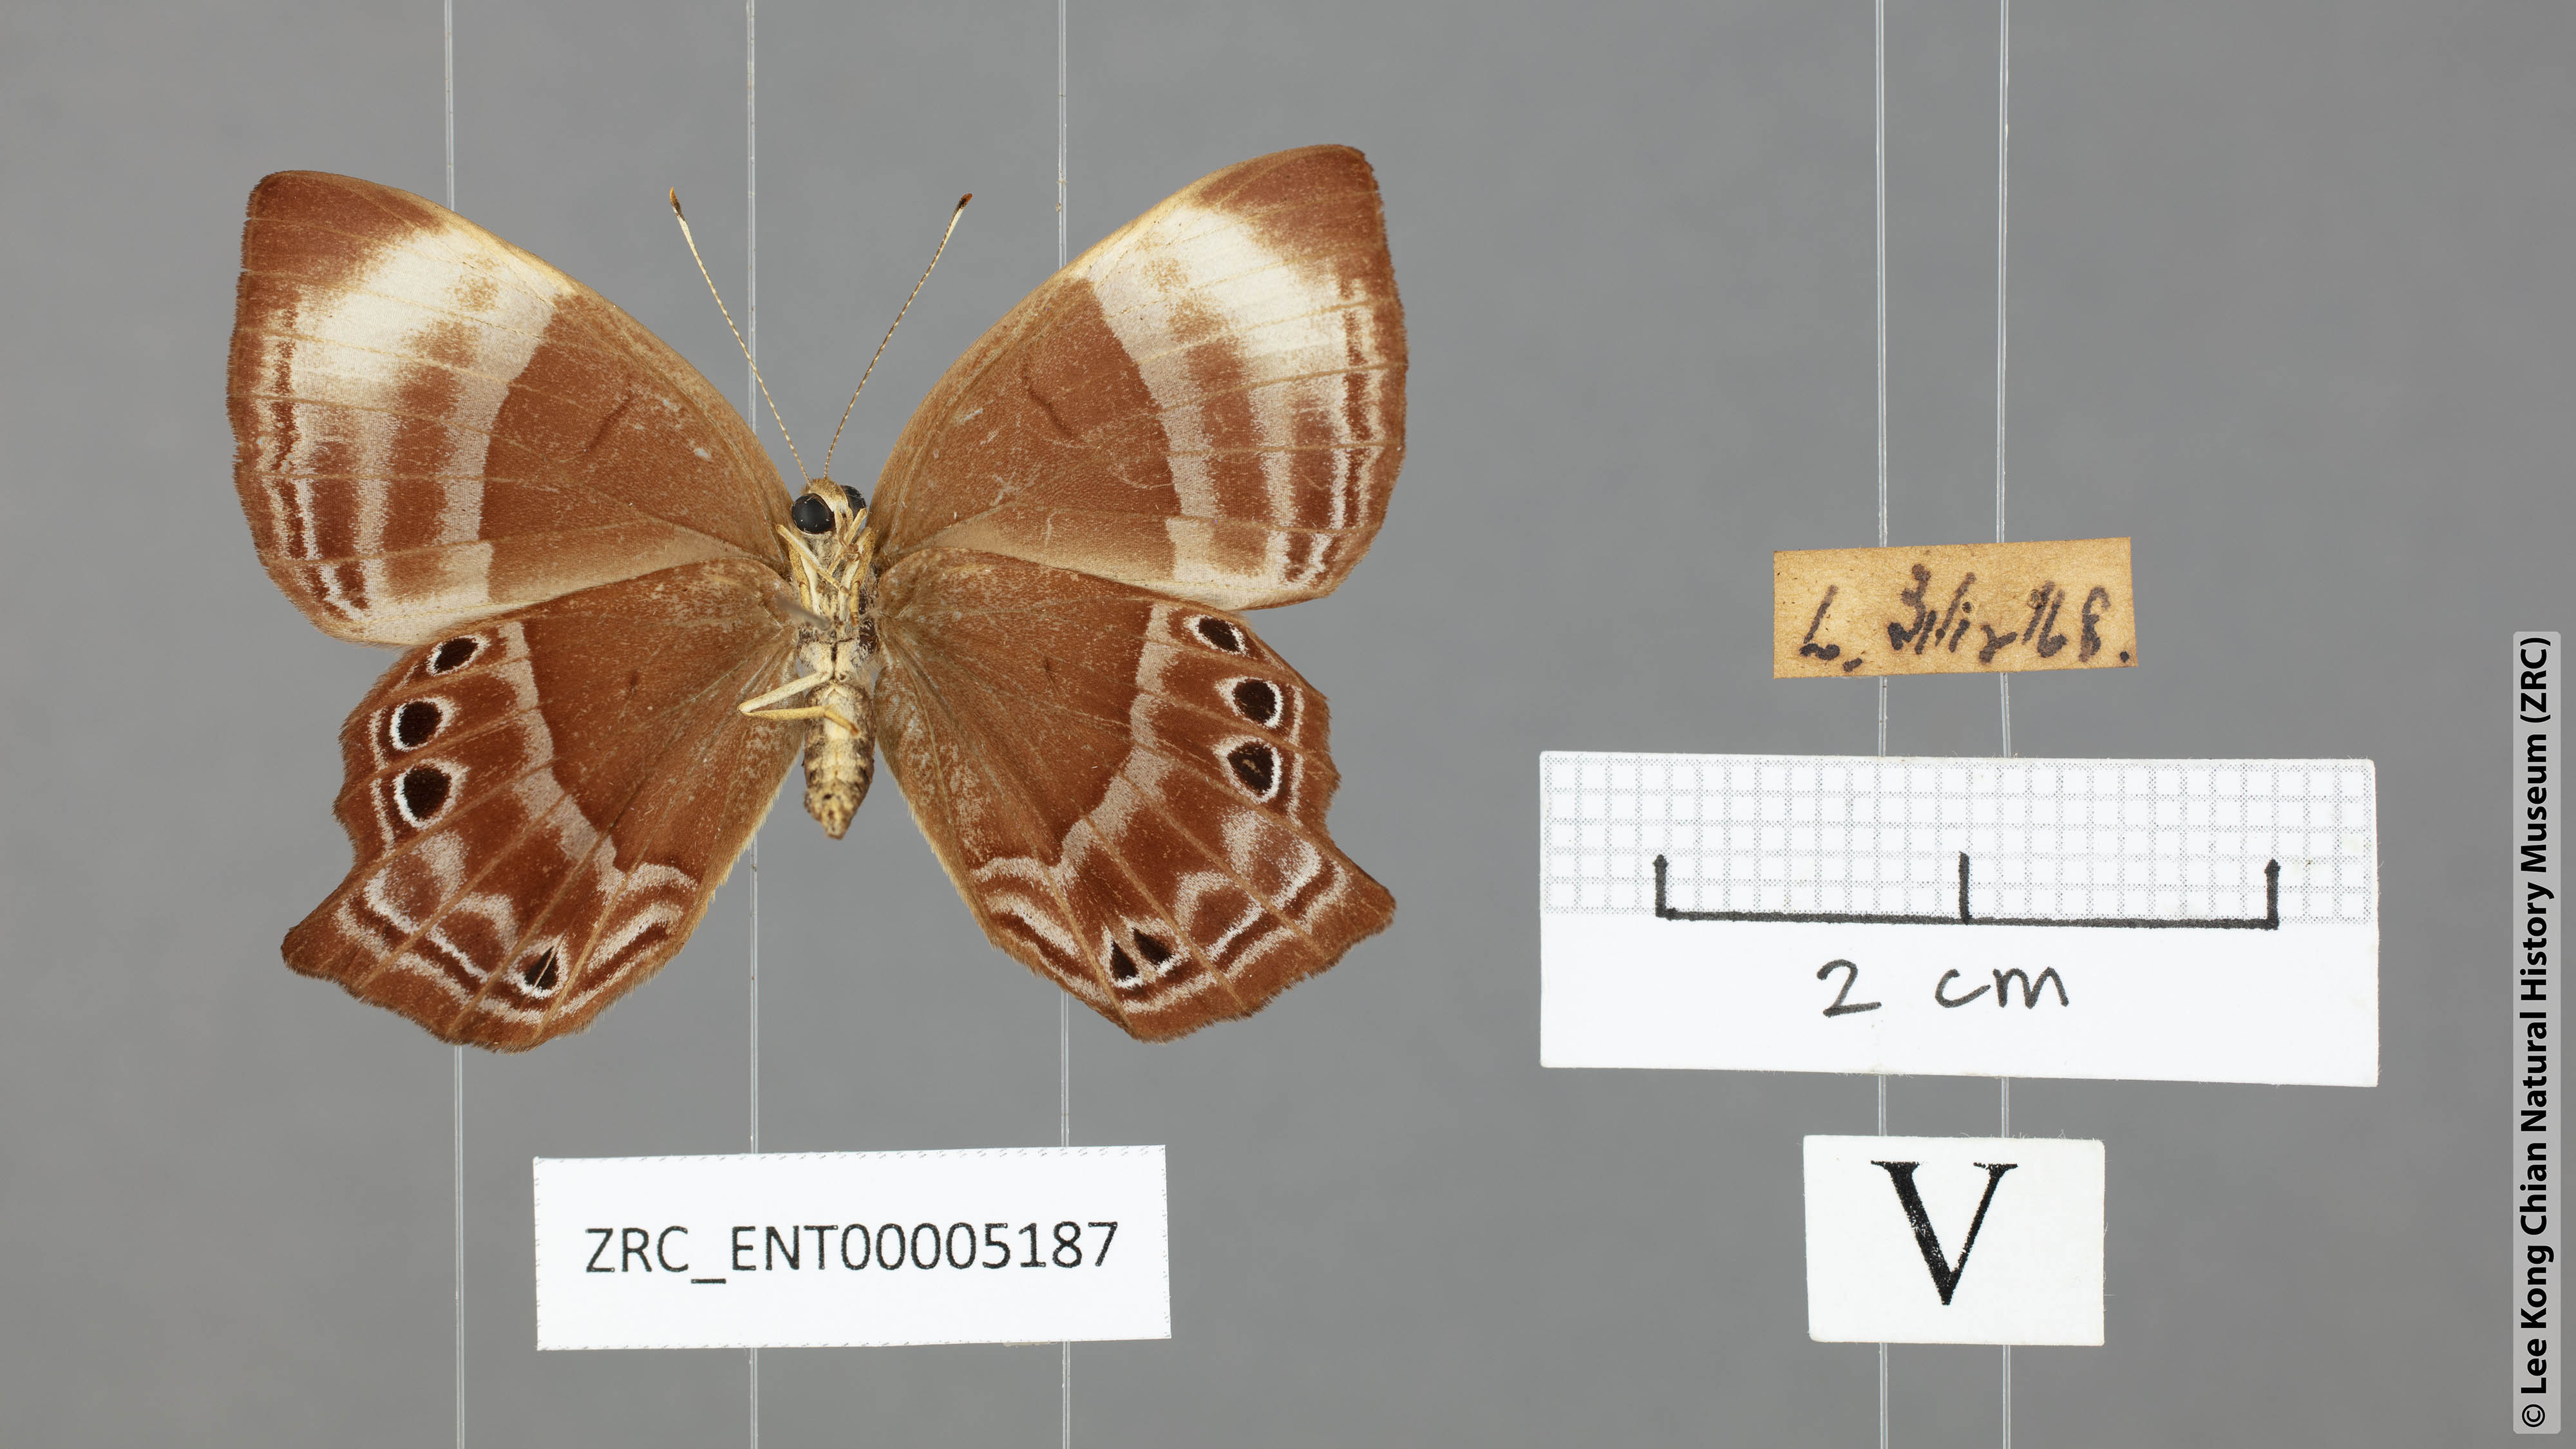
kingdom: Animalia
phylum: Arthropoda
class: Insecta
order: Lepidoptera
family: Lycaenidae
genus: Abisara
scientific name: Abisara saturata
